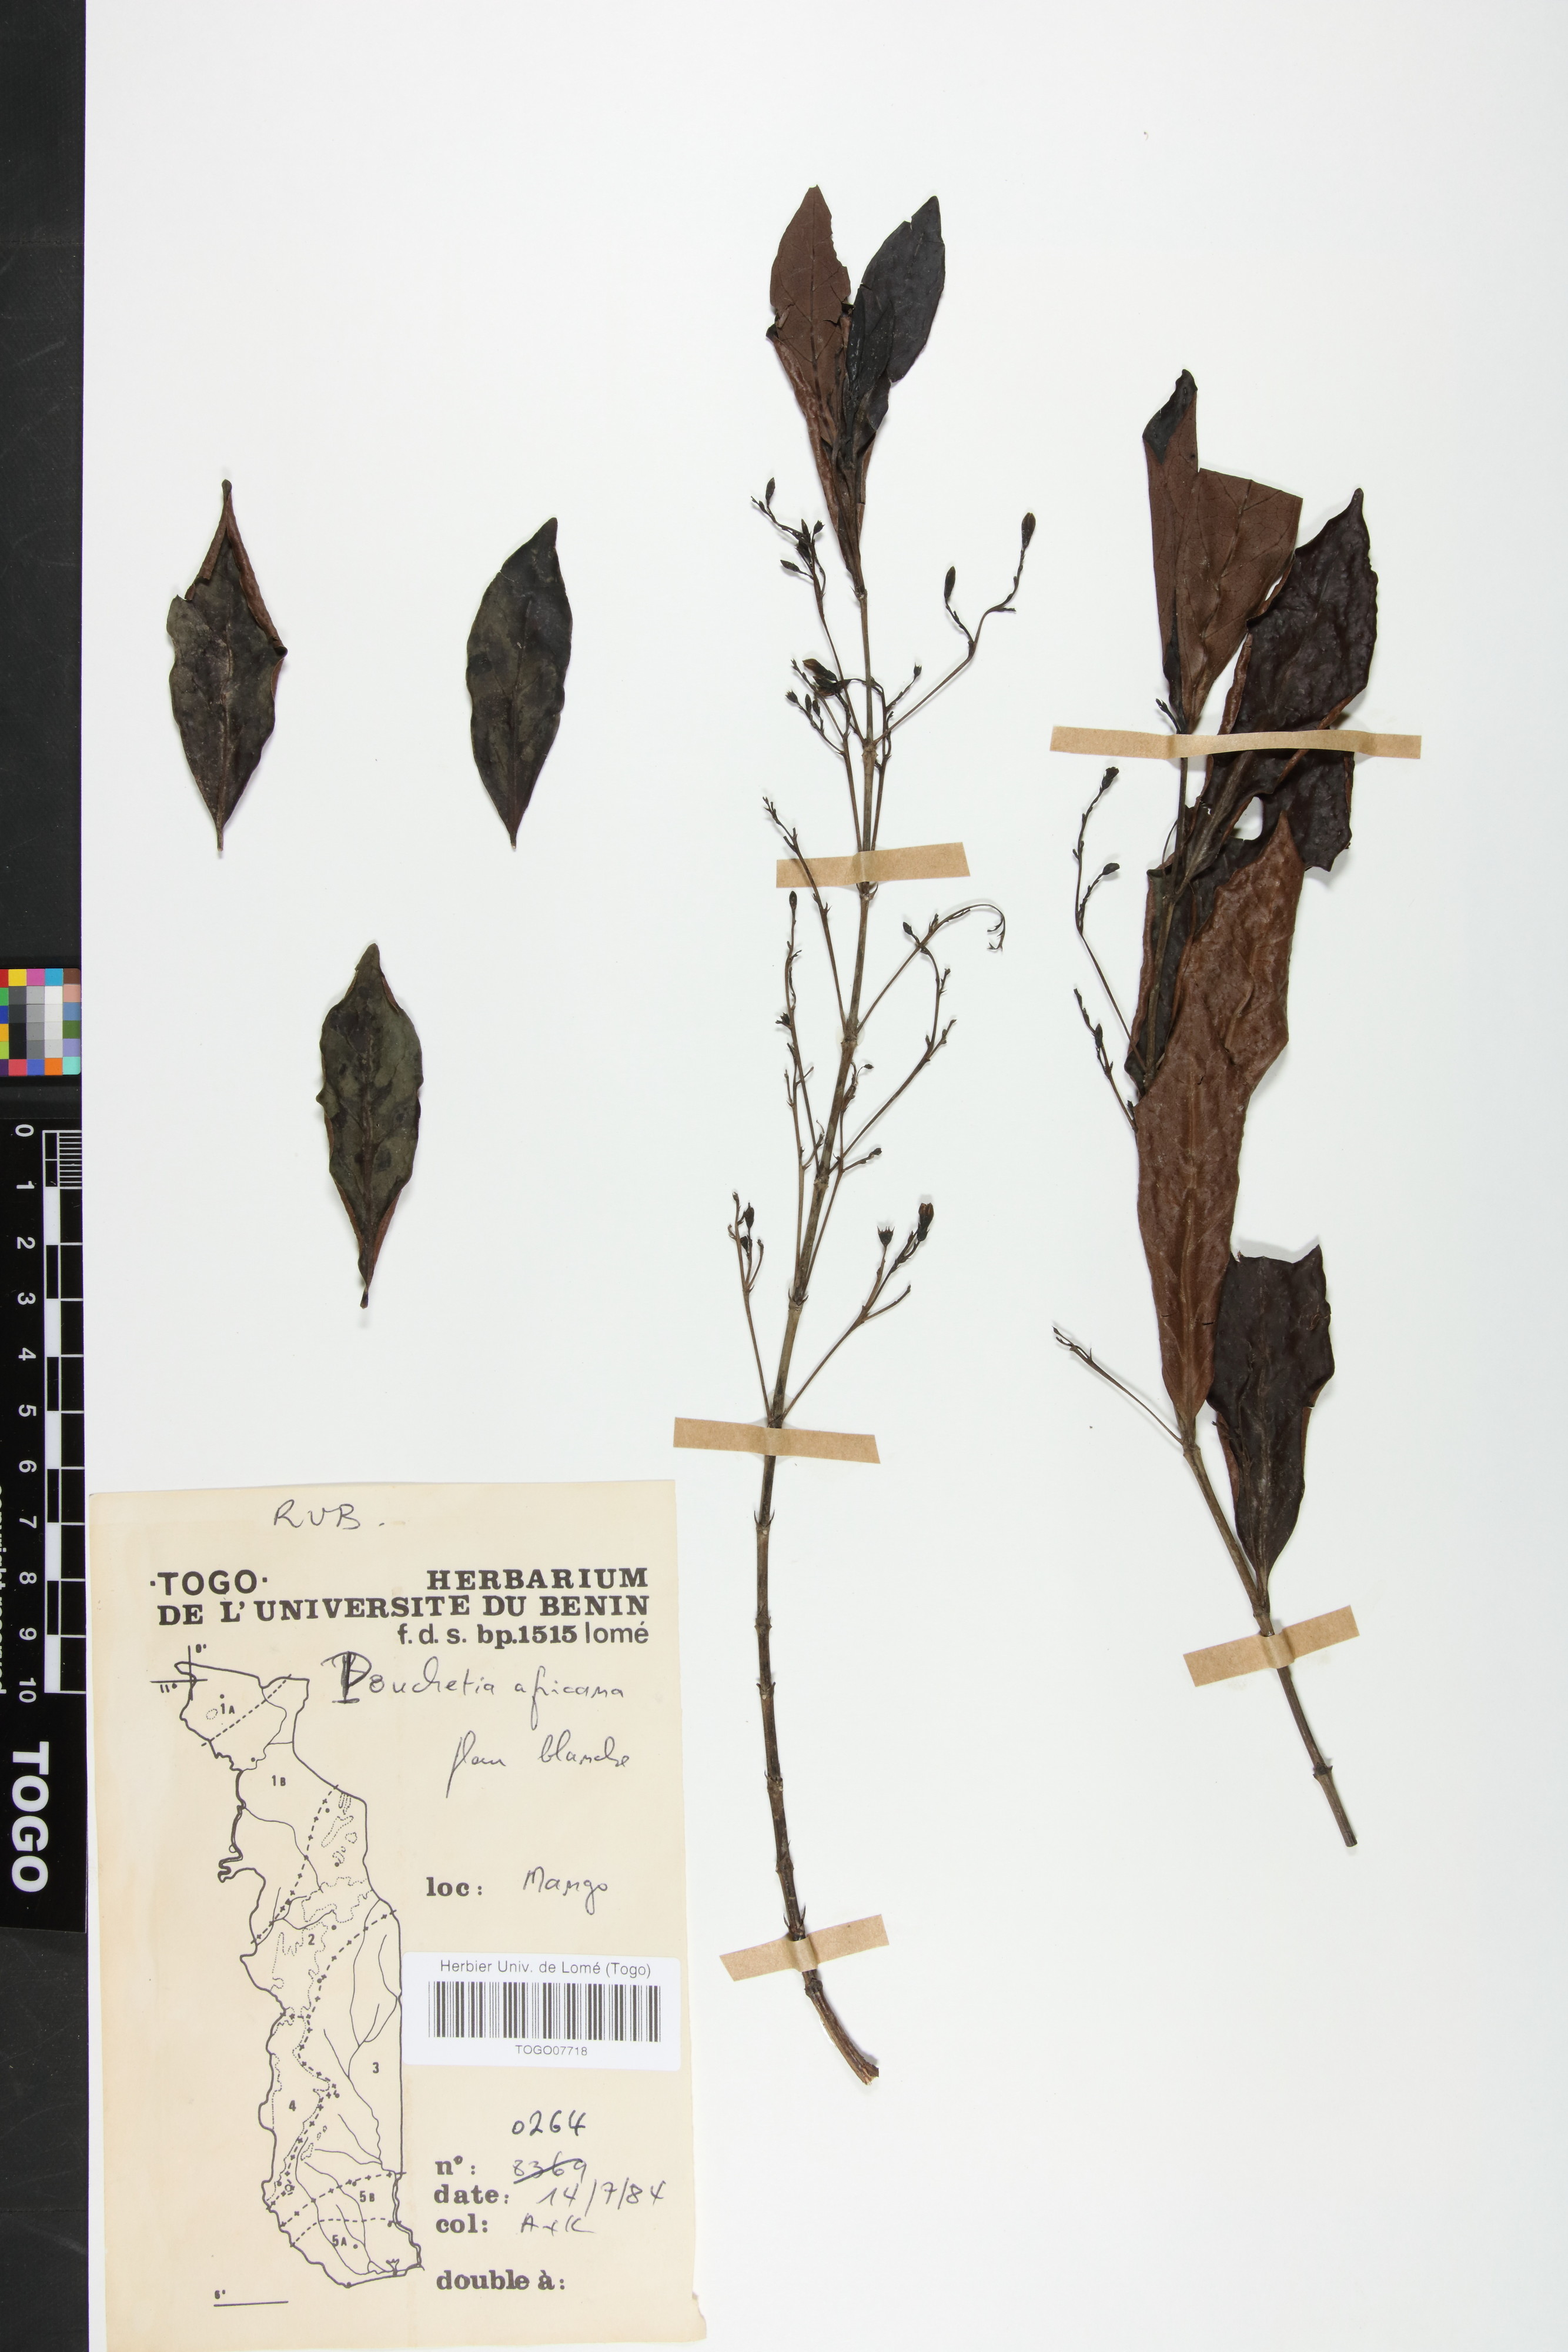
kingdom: Plantae
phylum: Tracheophyta
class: Magnoliopsida
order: Gentianales
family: Rubiaceae
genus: Pouchetia
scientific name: Pouchetia africana
